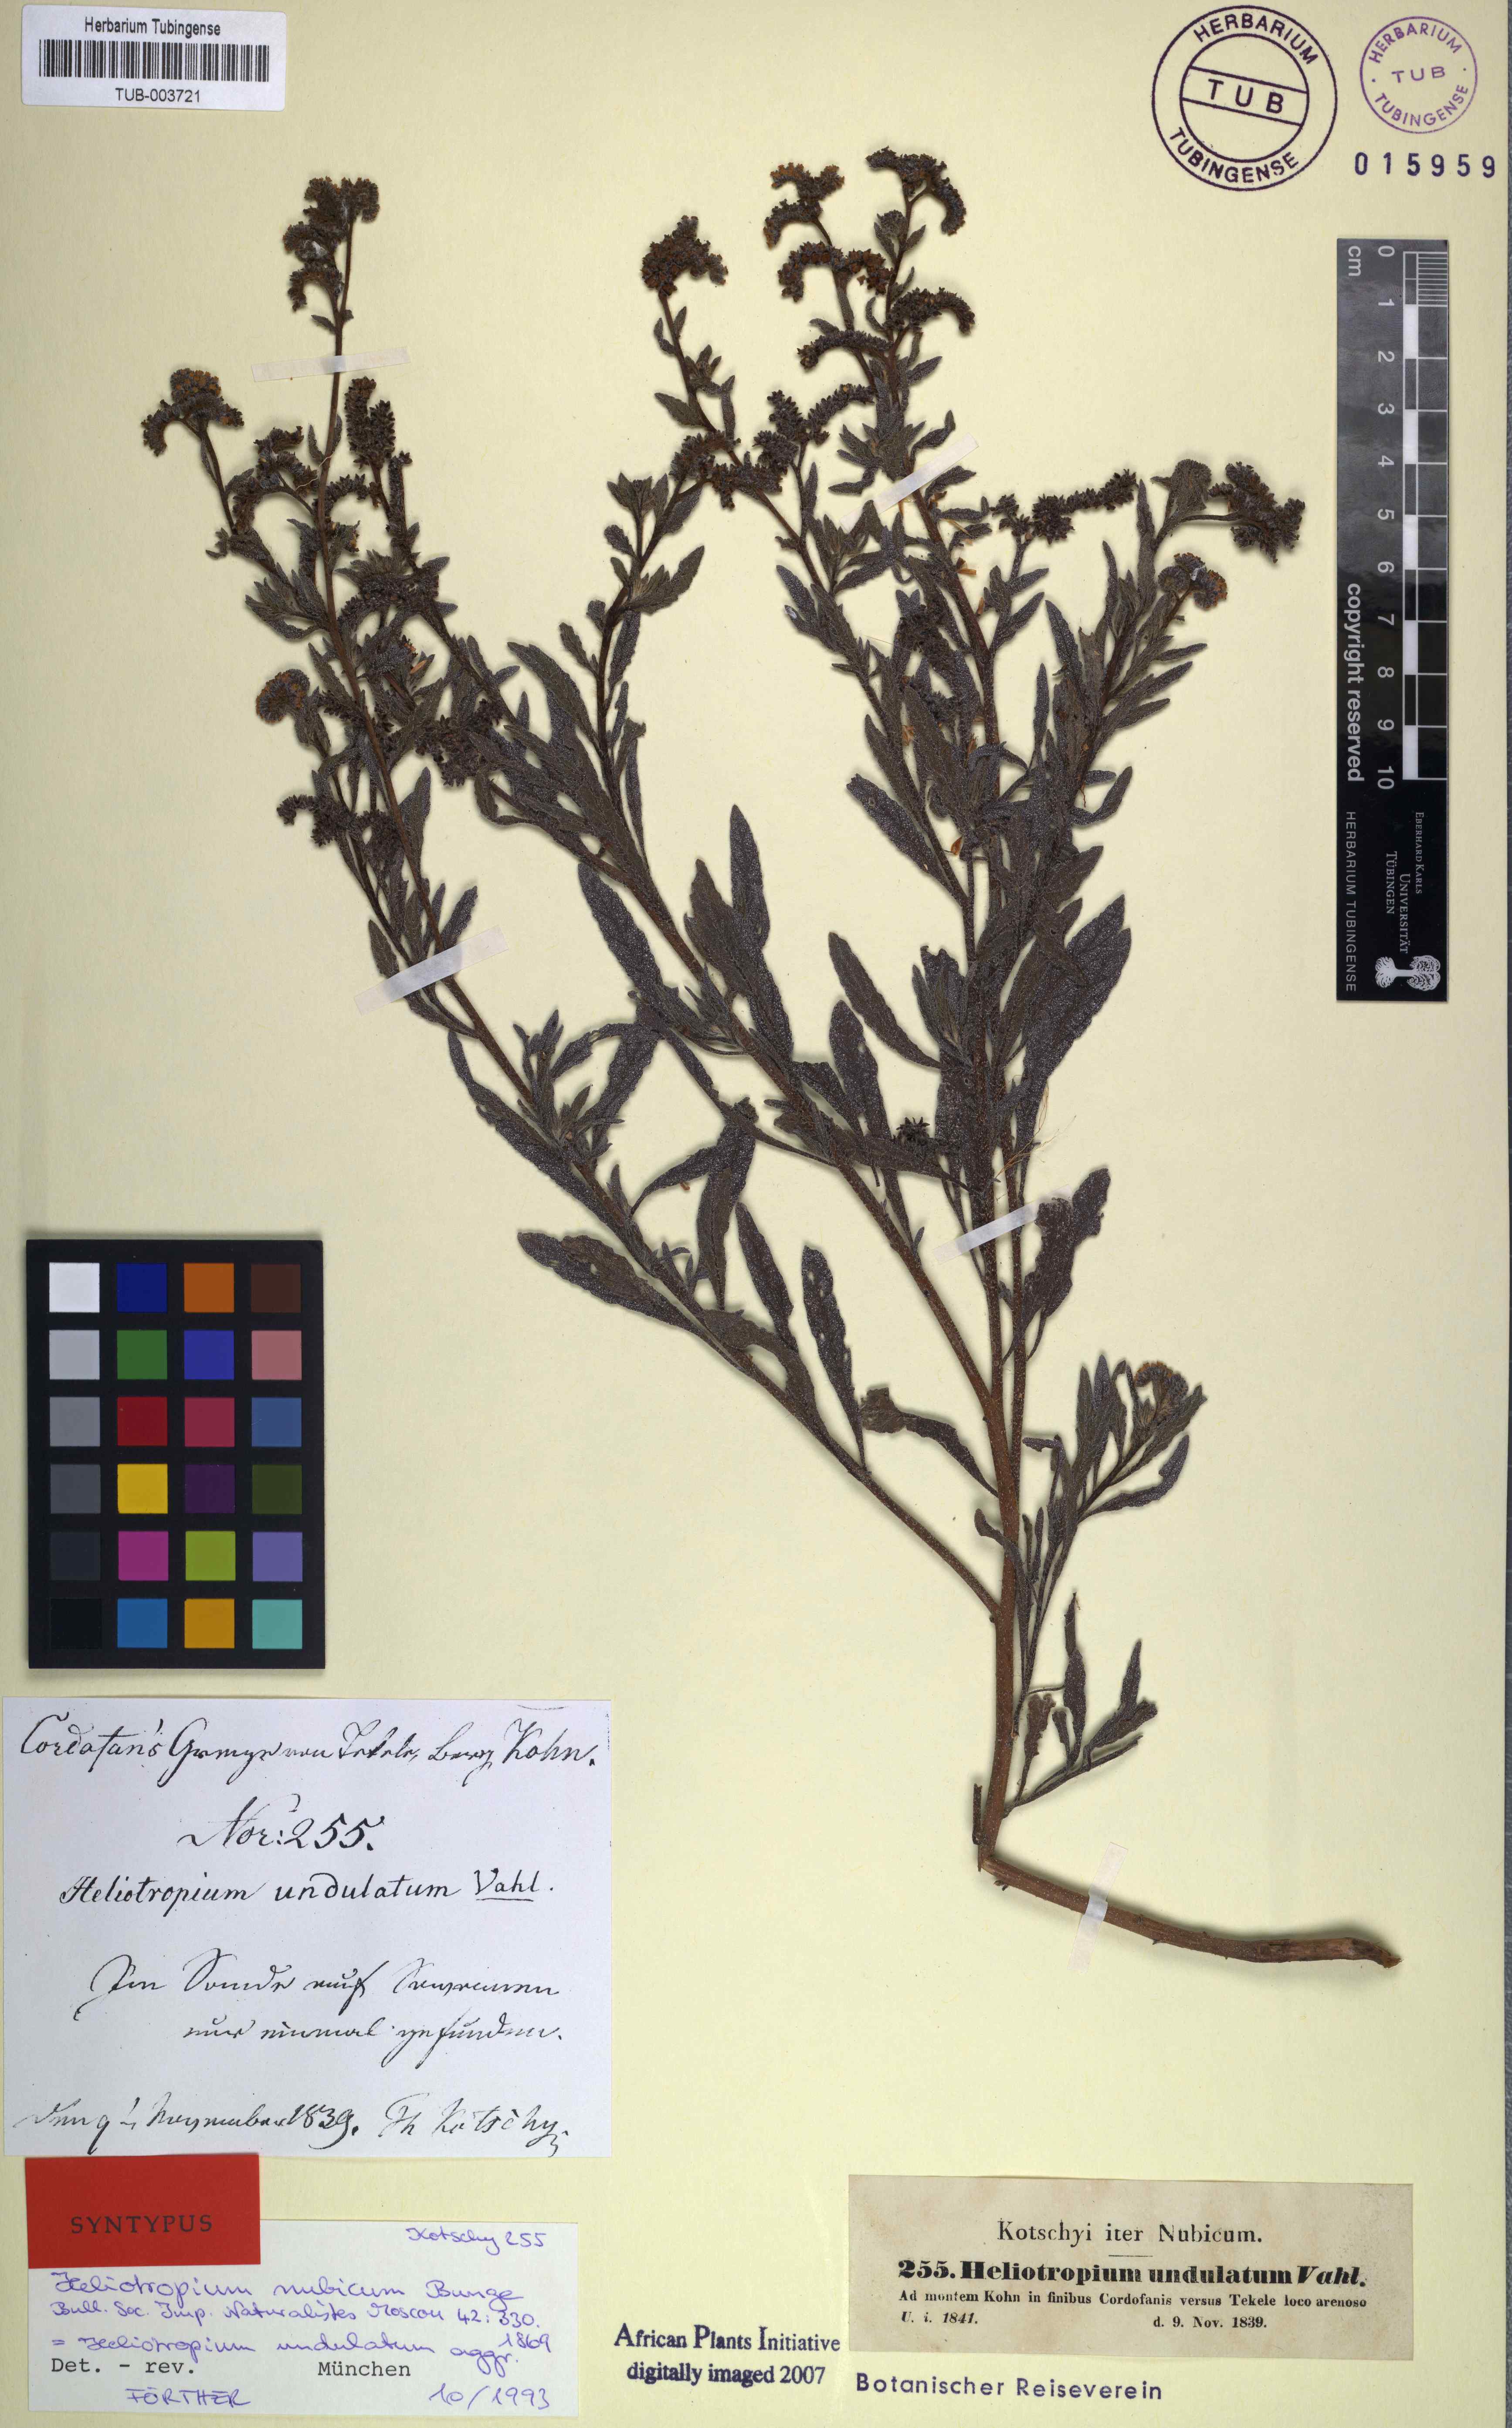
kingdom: Plantae
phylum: Tracheophyta
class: Magnoliopsida
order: Boraginales
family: Heliotropiaceae
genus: Heliotropium
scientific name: Heliotropium bacciferum
